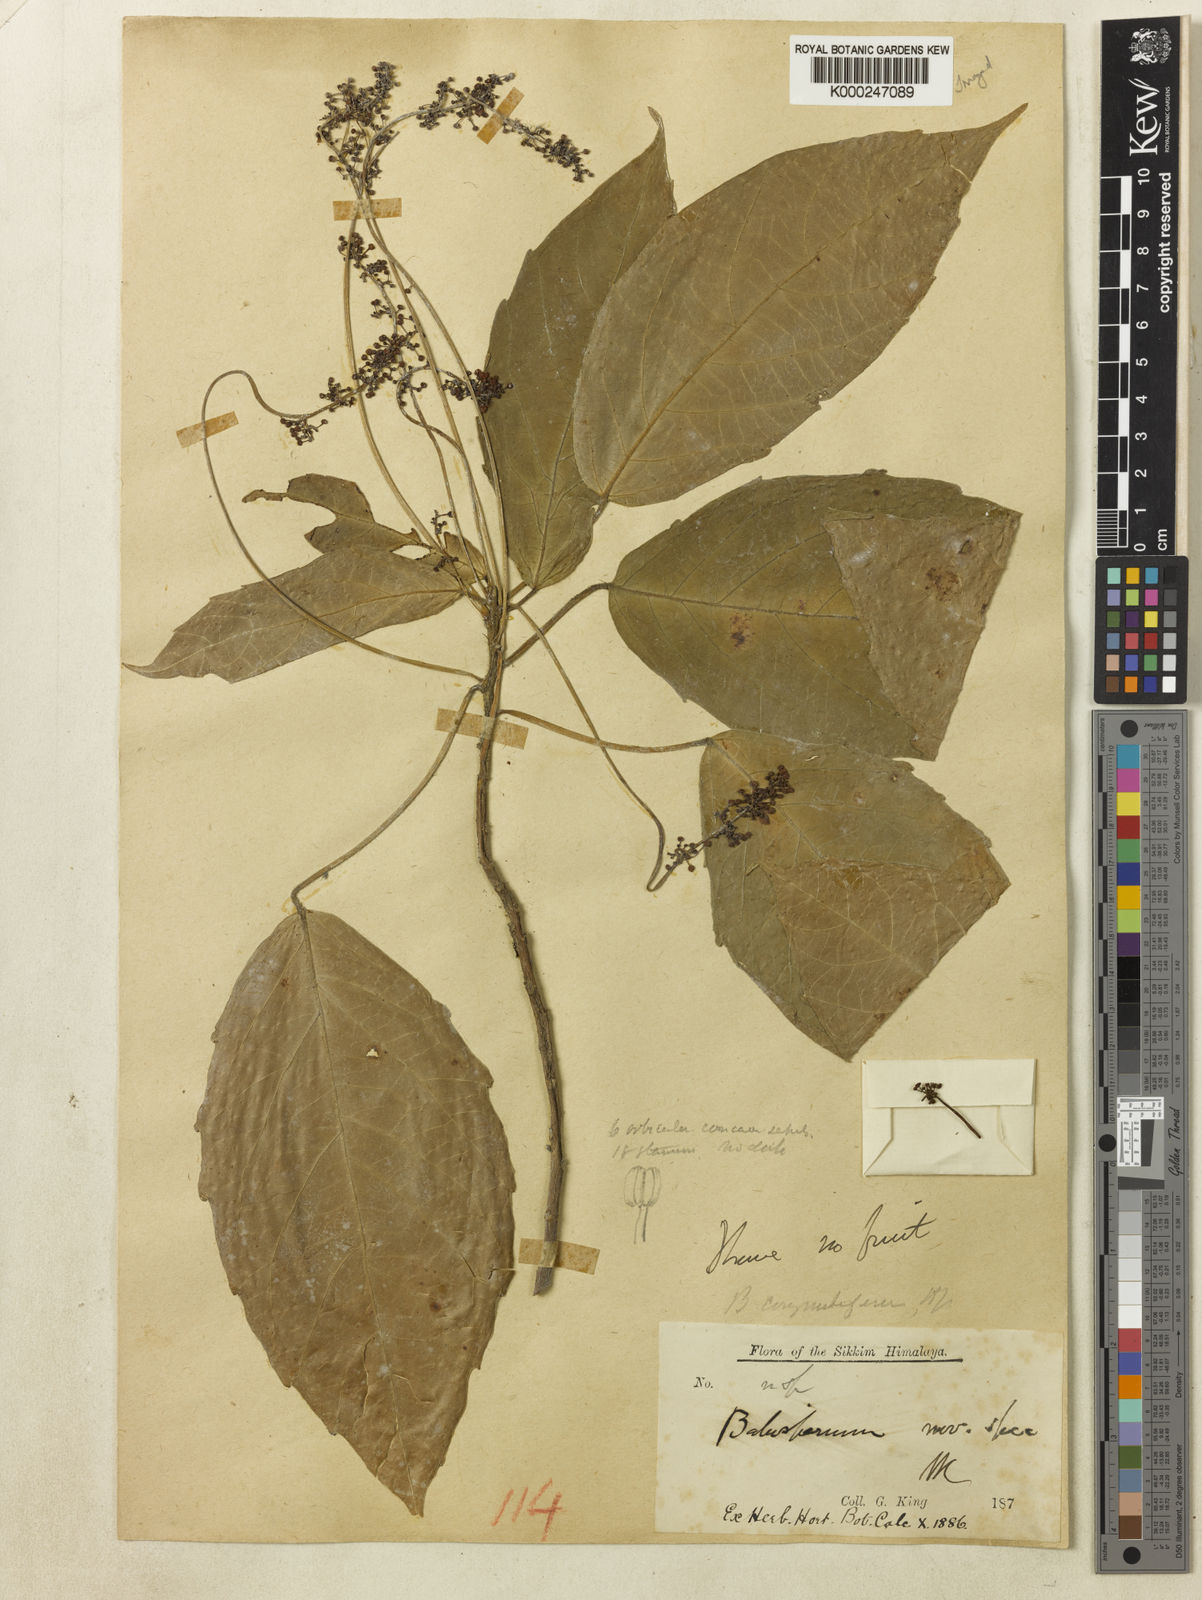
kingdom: Plantae
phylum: Tracheophyta
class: Magnoliopsida
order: Malpighiales
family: Euphorbiaceae
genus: Baliospermum
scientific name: Baliospermum
